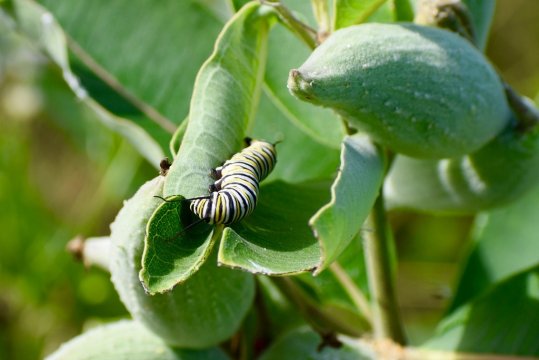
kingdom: Animalia
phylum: Arthropoda
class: Insecta
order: Lepidoptera
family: Nymphalidae
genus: Danaus
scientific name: Danaus plexippus
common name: Monarch
